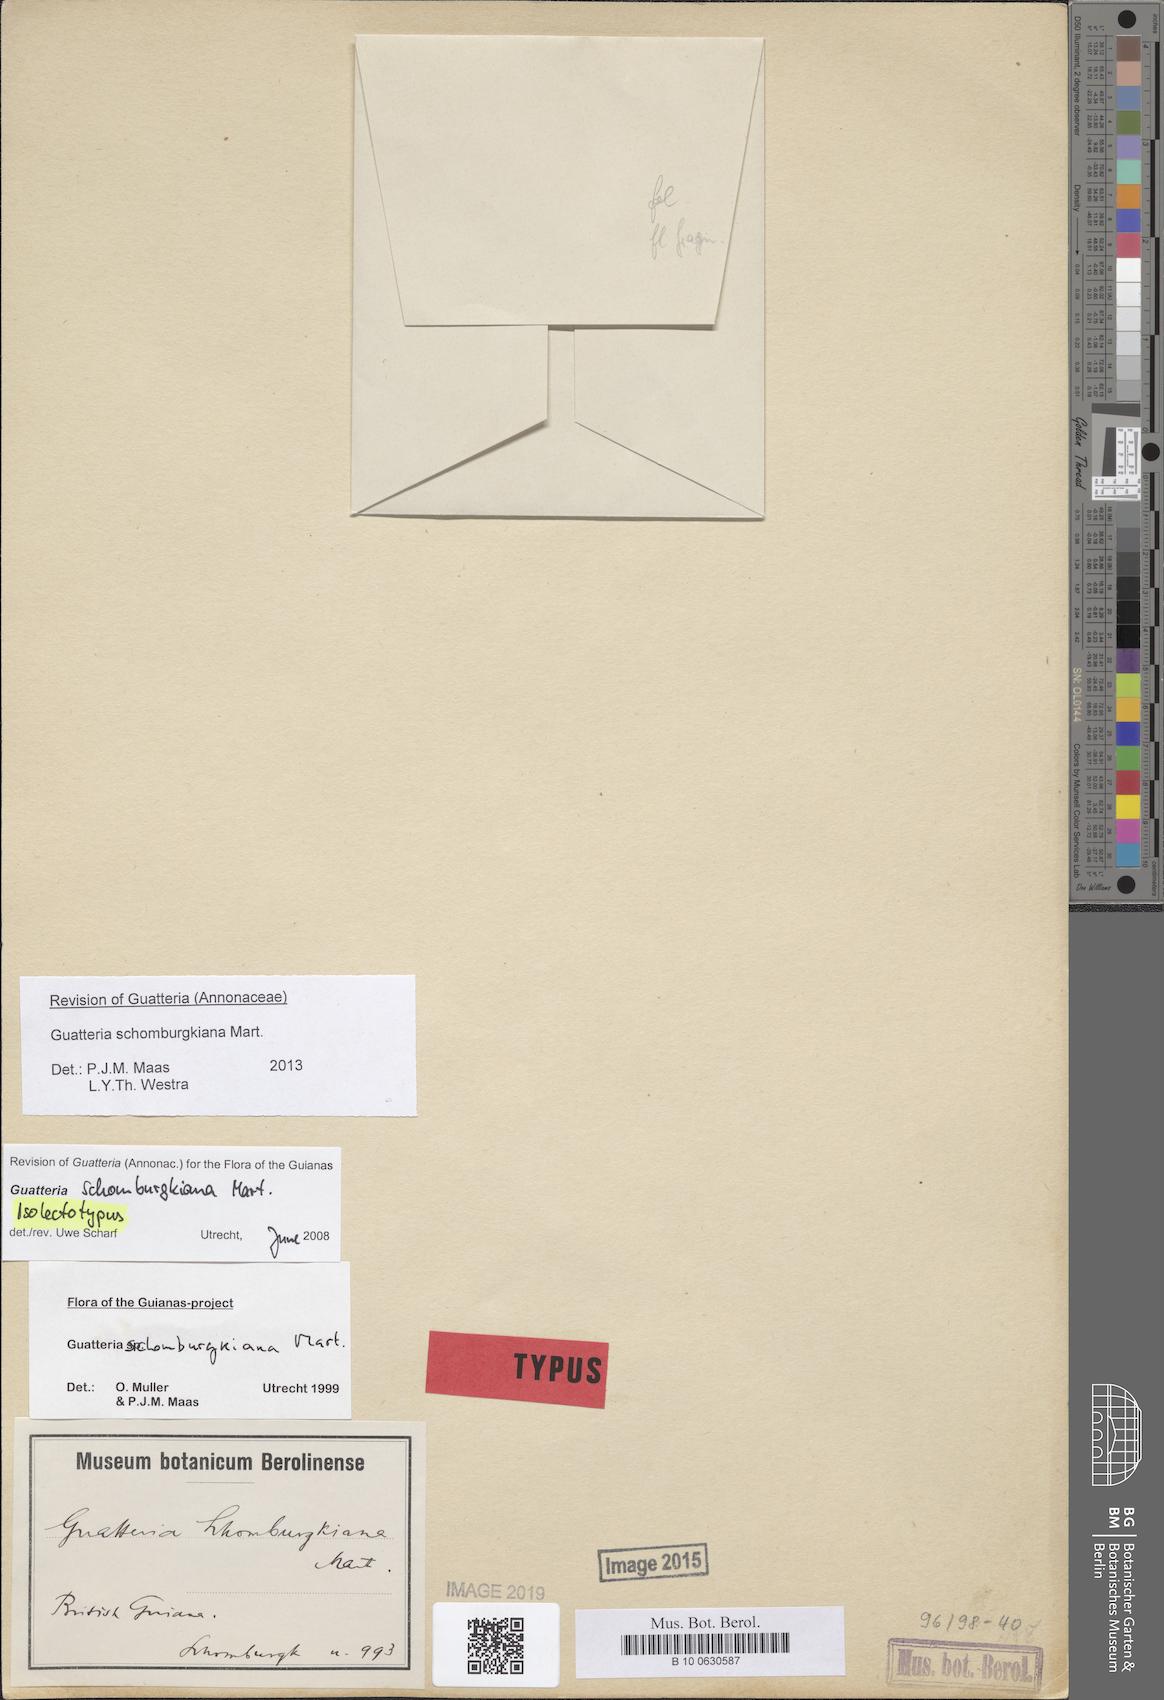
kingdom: Plantae
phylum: Tracheophyta
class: Magnoliopsida
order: Magnoliales
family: Annonaceae
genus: Guatteria
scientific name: Guatteria schomburgkiana
